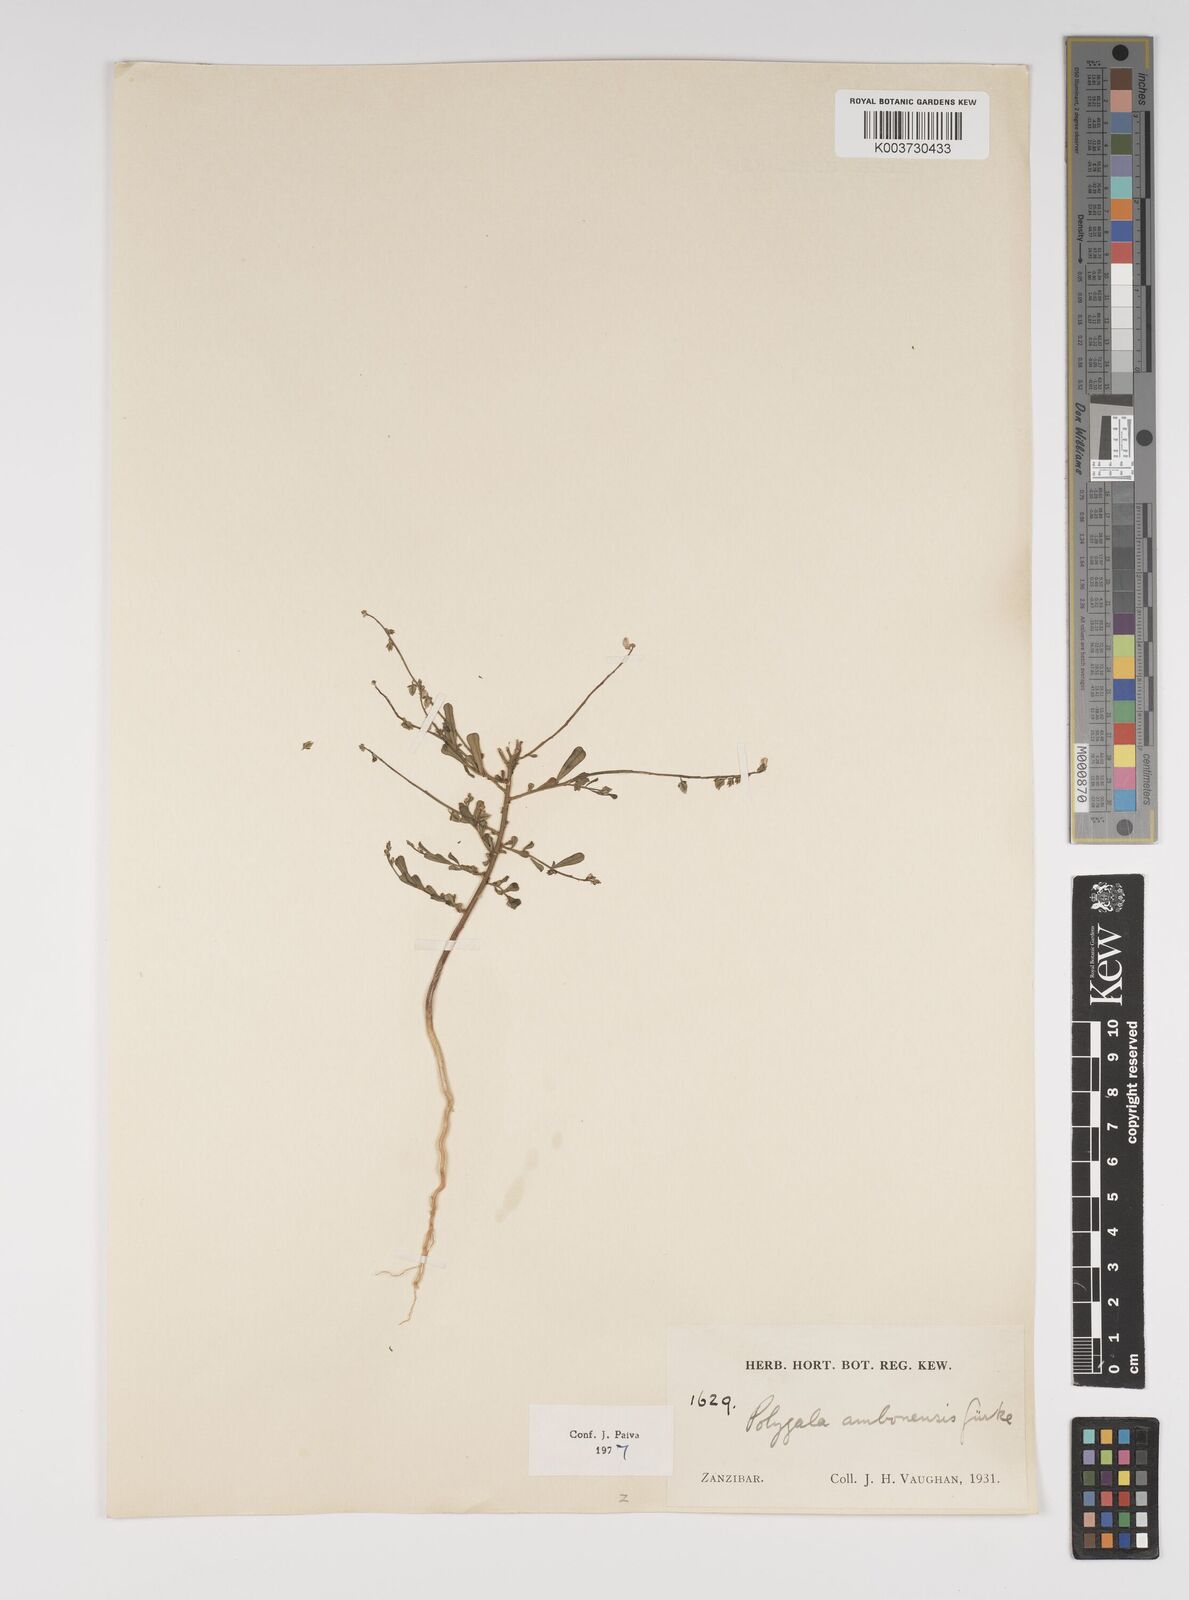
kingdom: Plantae
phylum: Tracheophyta
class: Magnoliopsida
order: Fabales
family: Polygalaceae
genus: Polygala
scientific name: Polygala amboniensis
